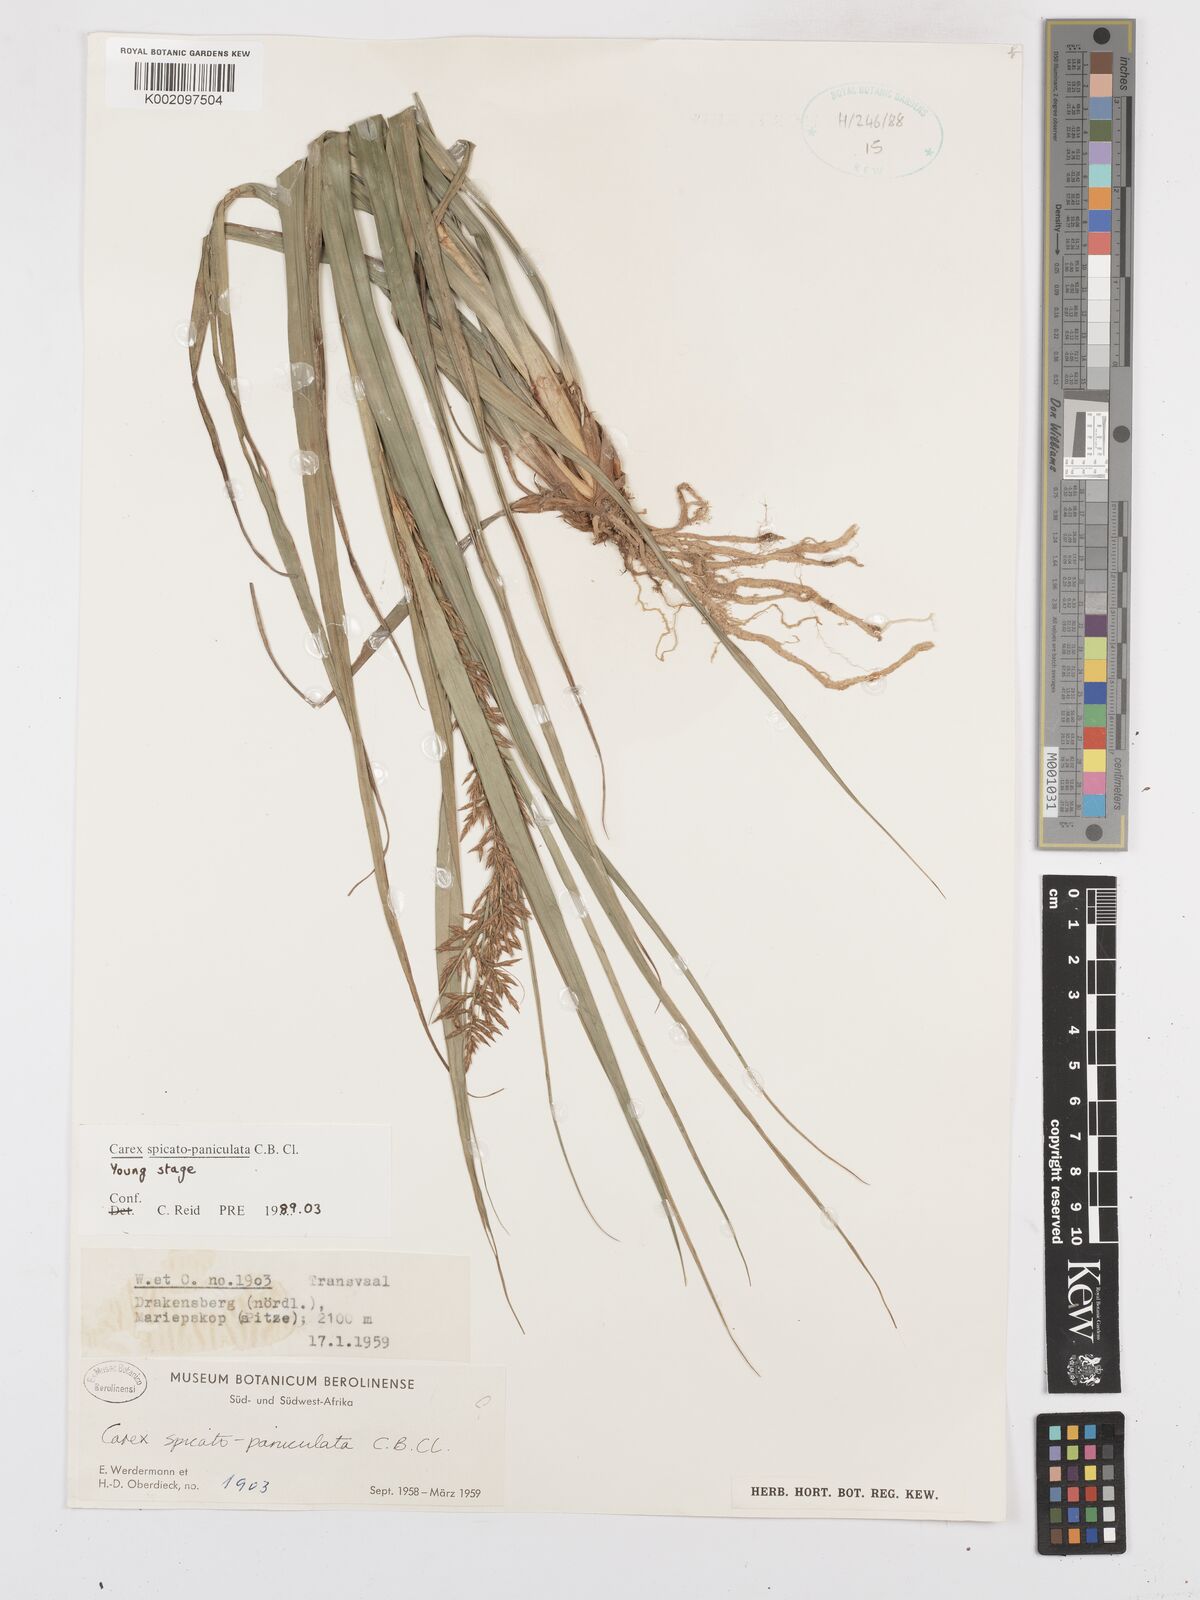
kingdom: Plantae
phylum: Tracheophyta
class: Liliopsida
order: Poales
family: Cyperaceae
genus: Carex
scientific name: Carex spicatopaniculata
